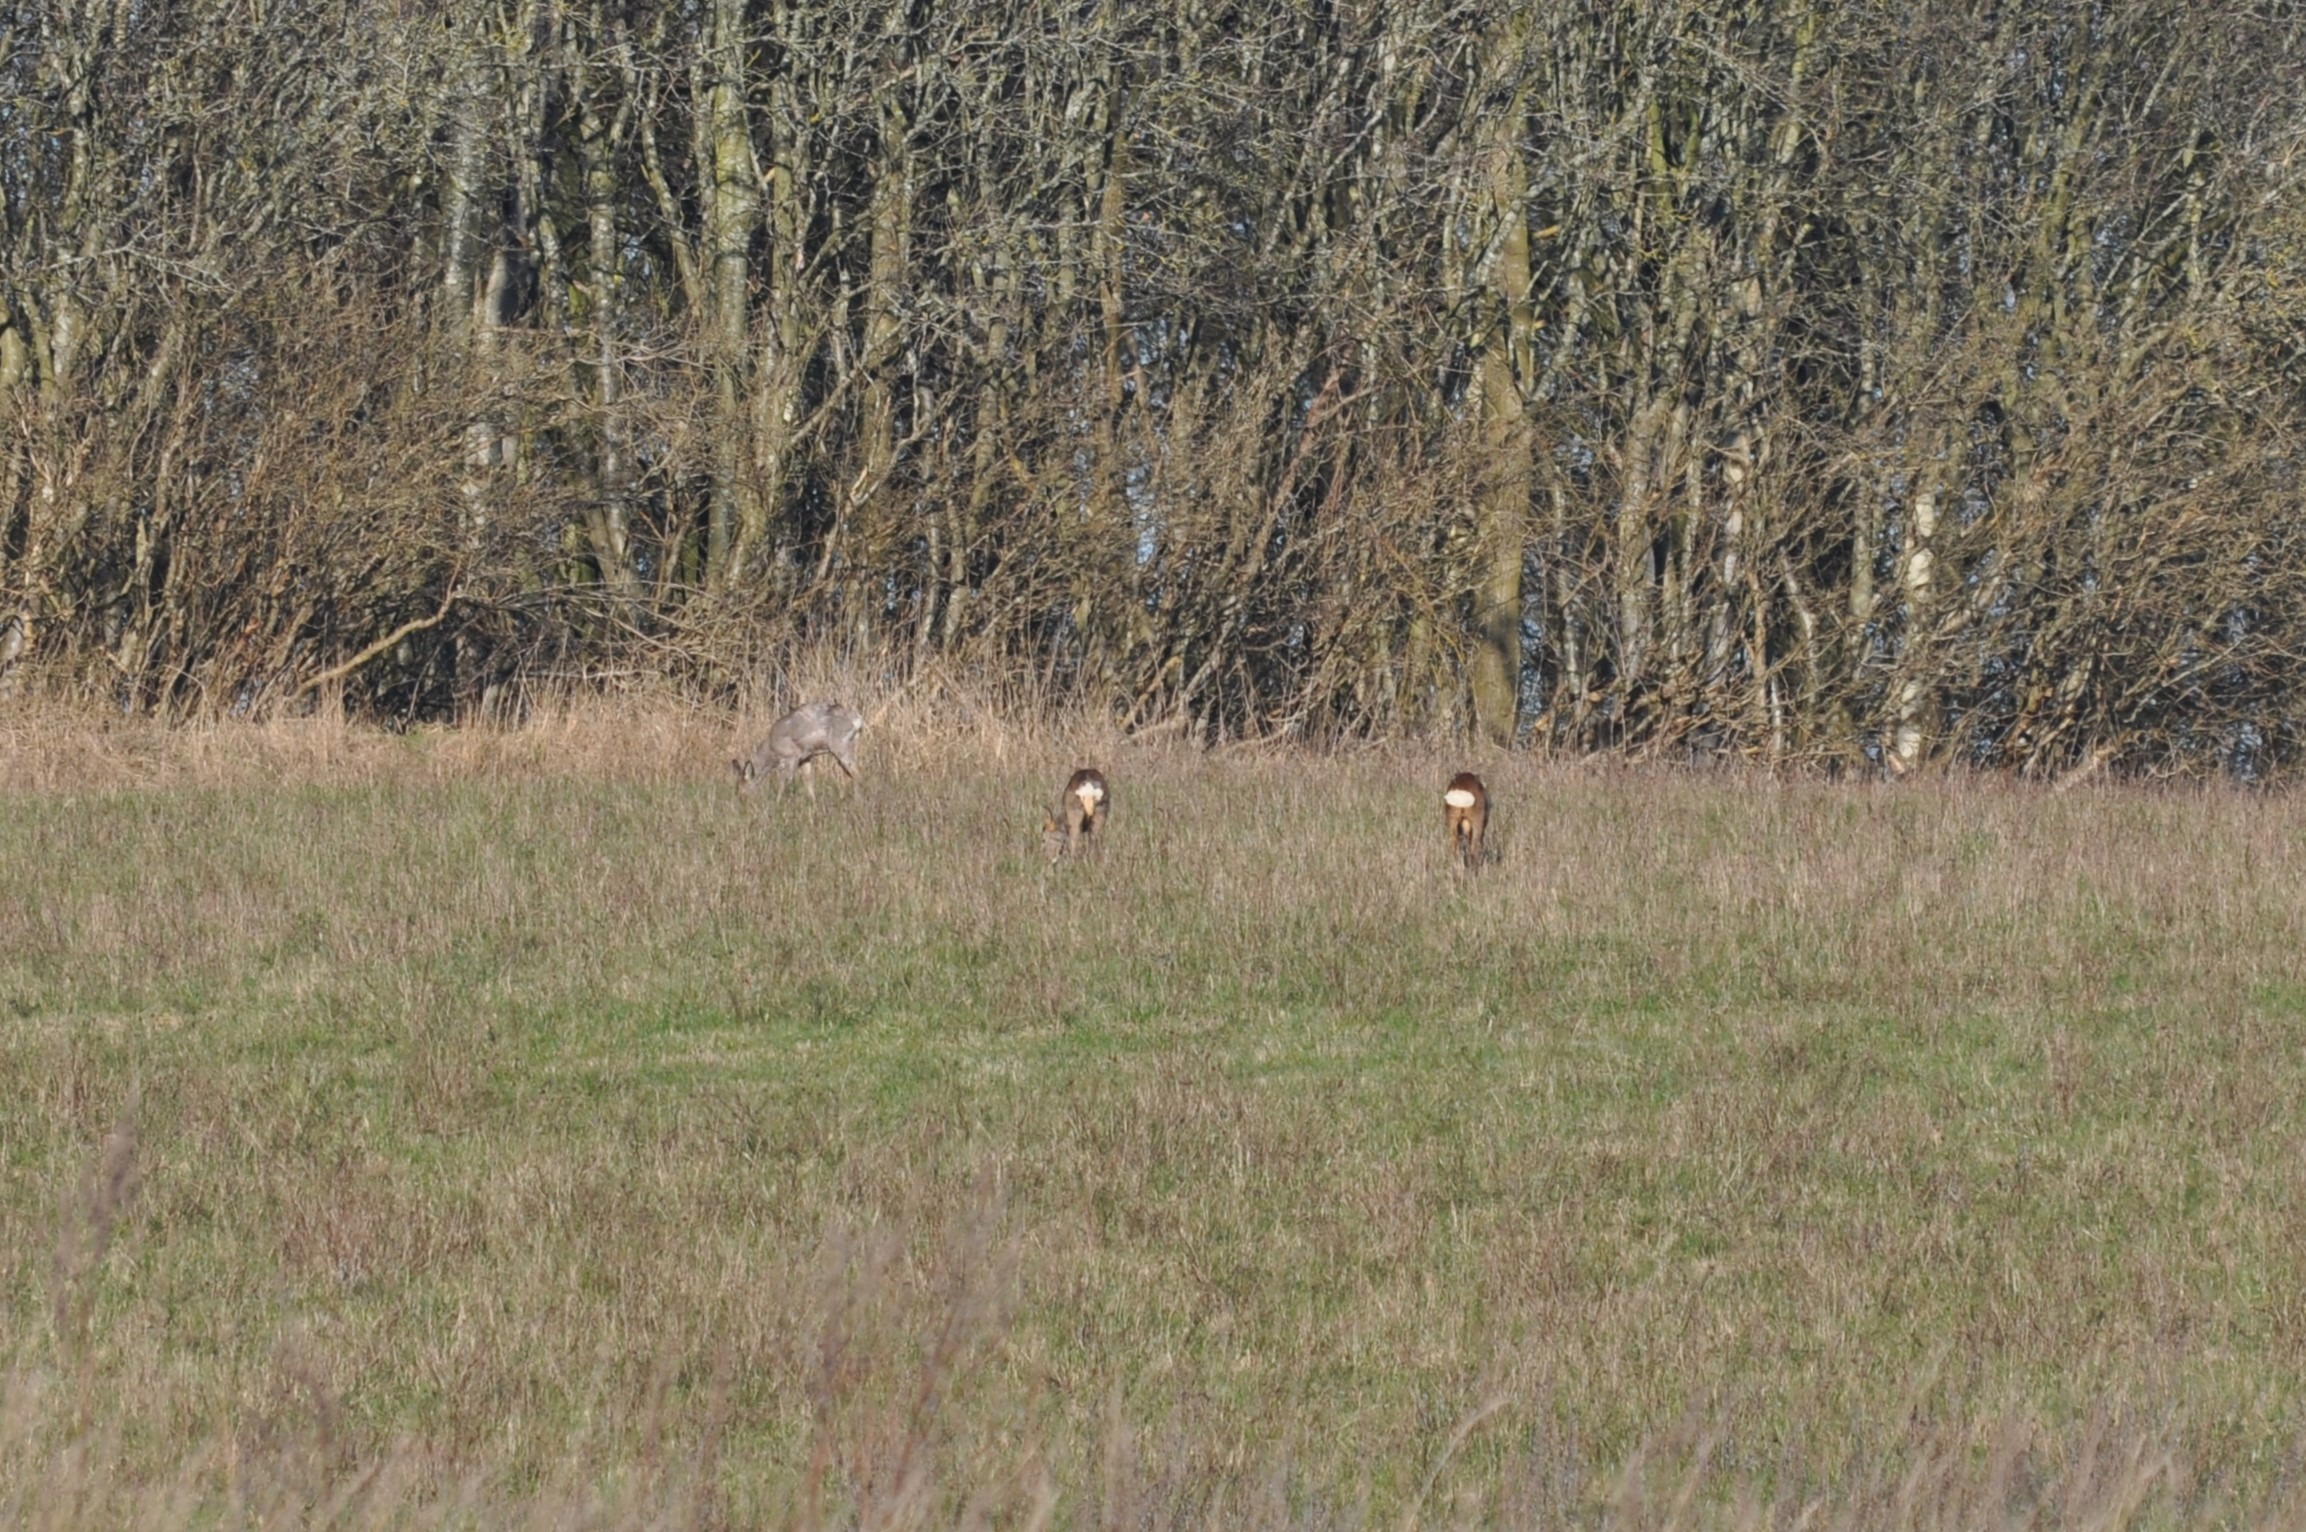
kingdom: Animalia
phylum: Chordata
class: Mammalia
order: Artiodactyla
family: Cervidae
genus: Capreolus
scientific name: Capreolus capreolus
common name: Rådyr
